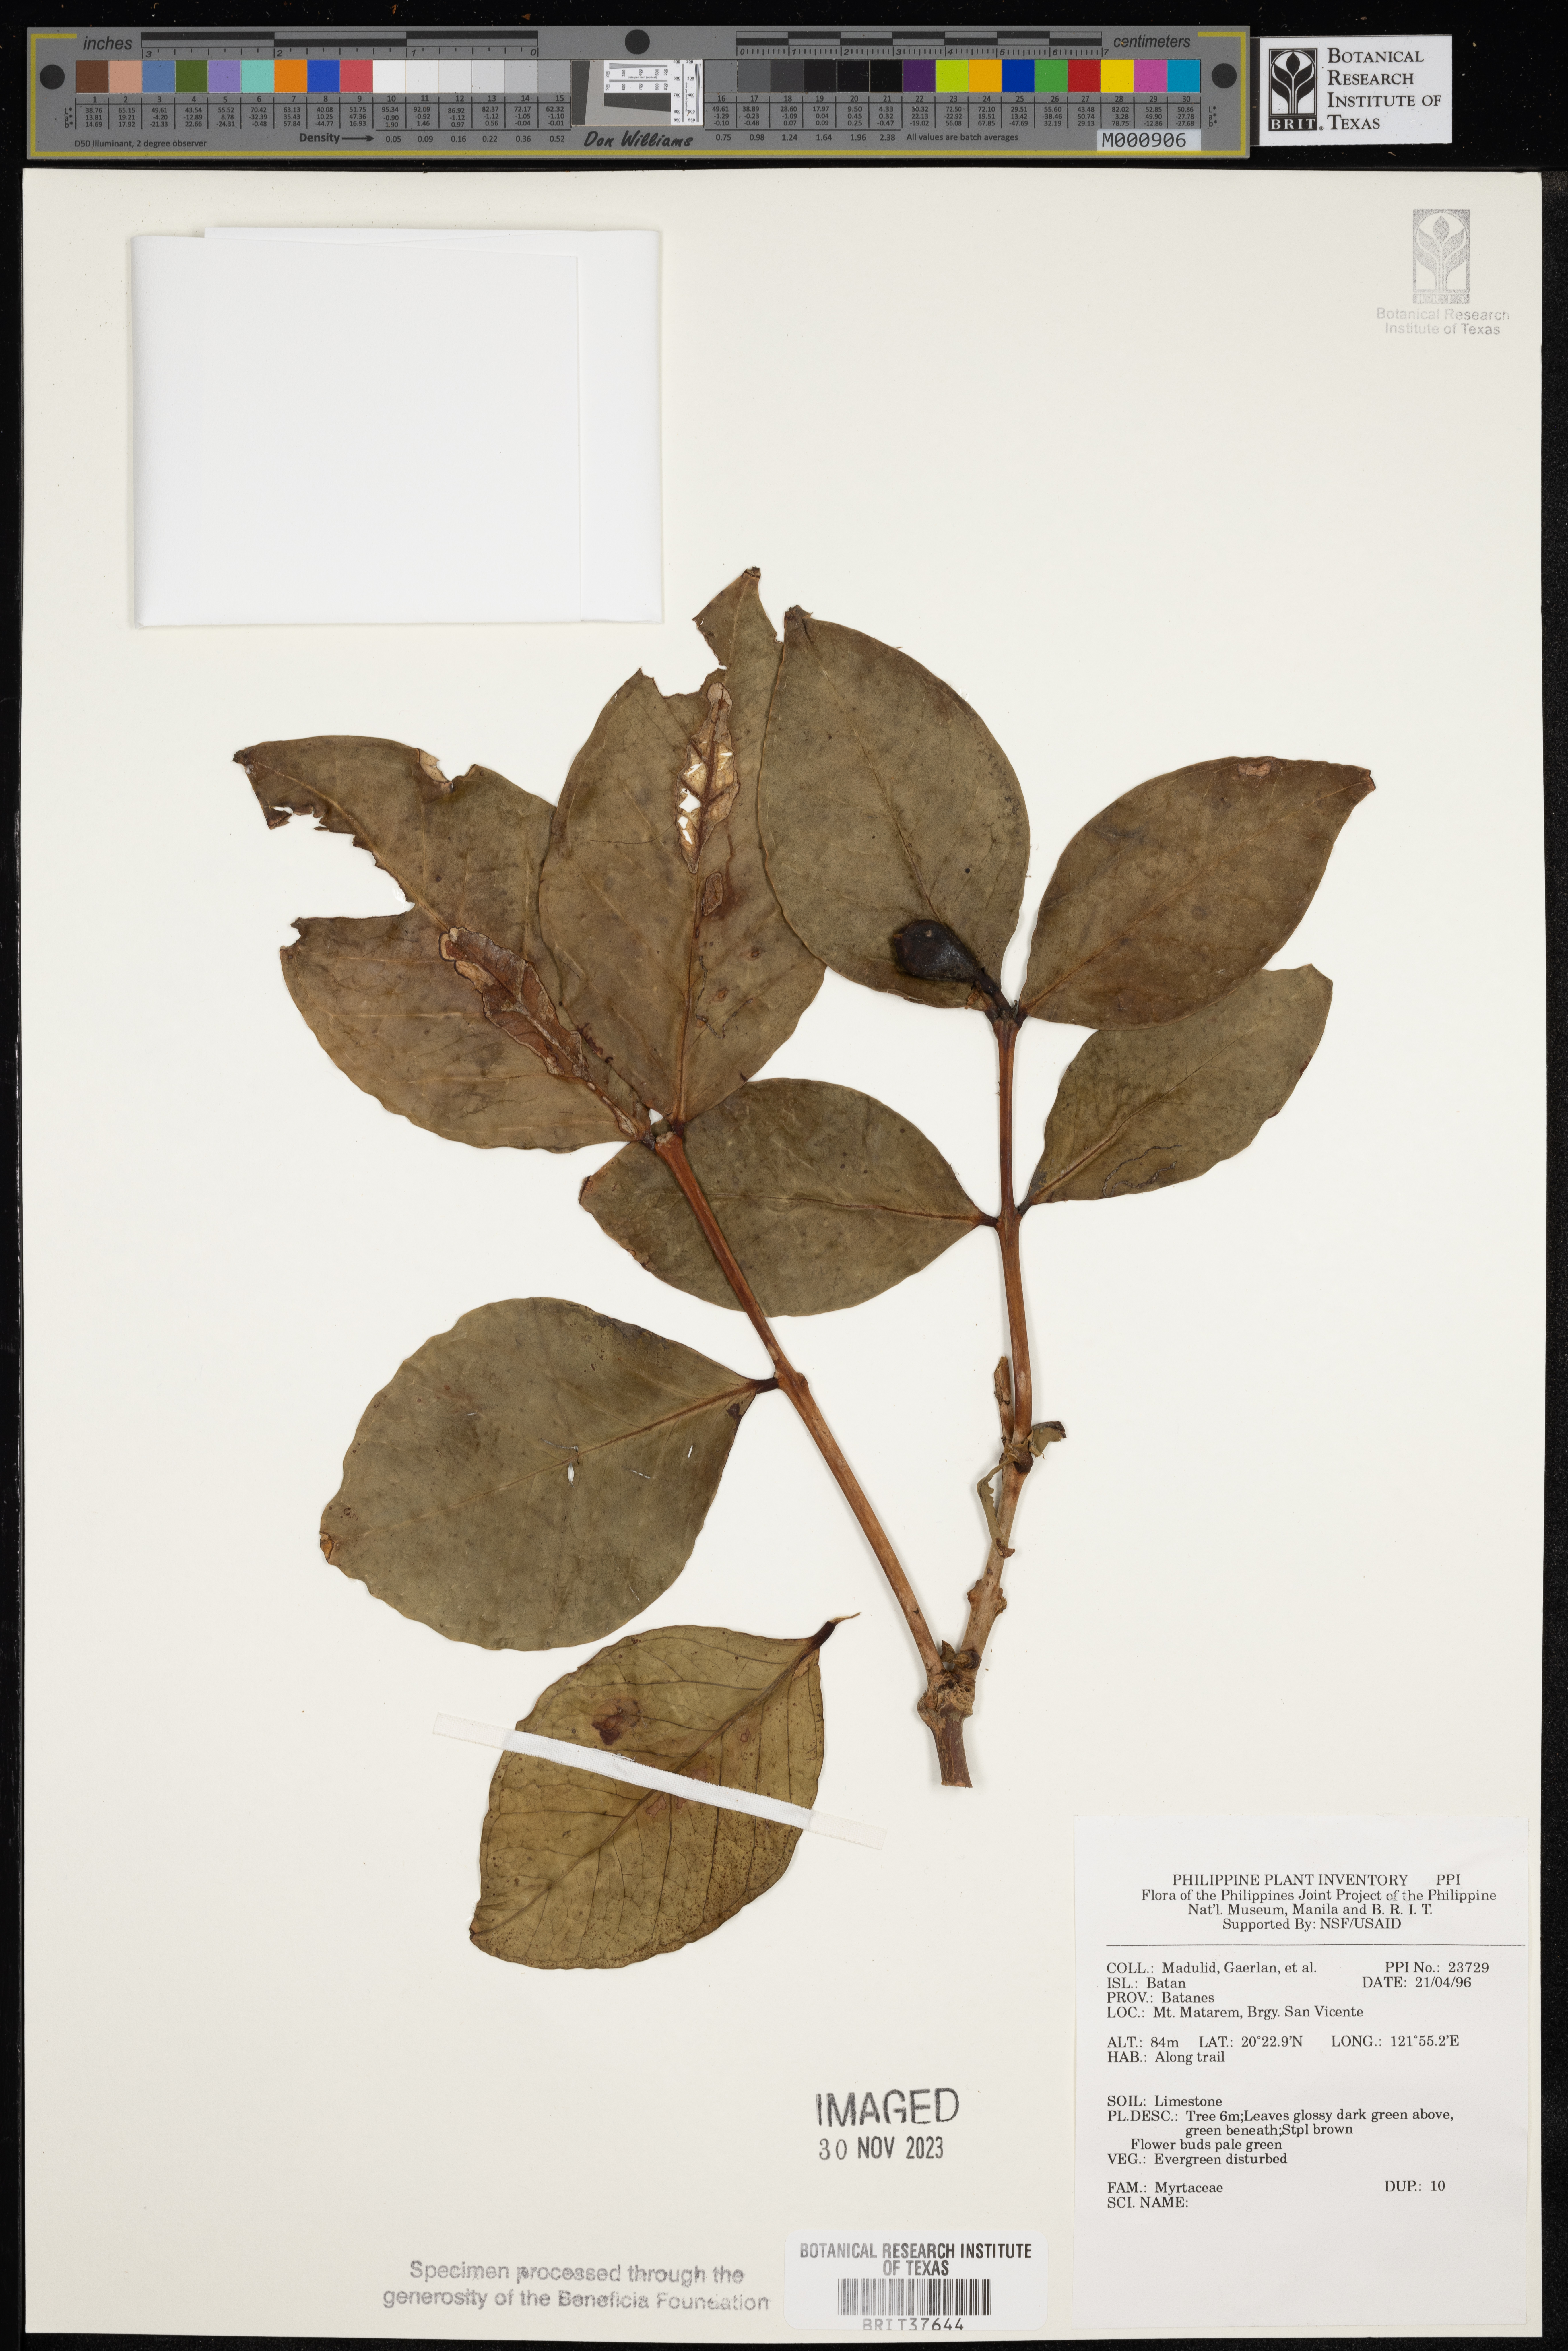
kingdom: Plantae
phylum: Tracheophyta
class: Magnoliopsida
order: Myrtales
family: Myrtaceae
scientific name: Myrtaceae
